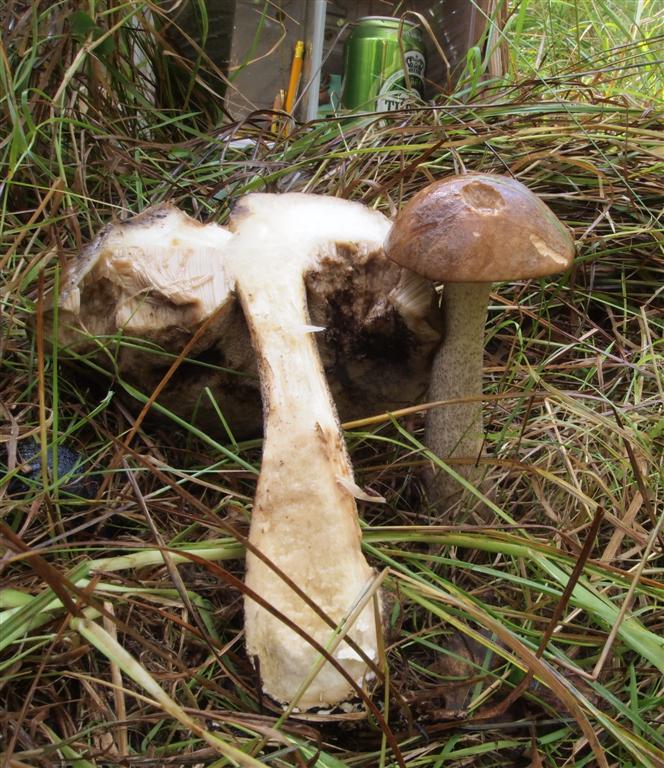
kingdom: Fungi
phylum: Basidiomycota
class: Agaricomycetes
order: Boletales
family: Boletaceae
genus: Leccinum
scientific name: Leccinum scabrum
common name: brun skælrørhat
